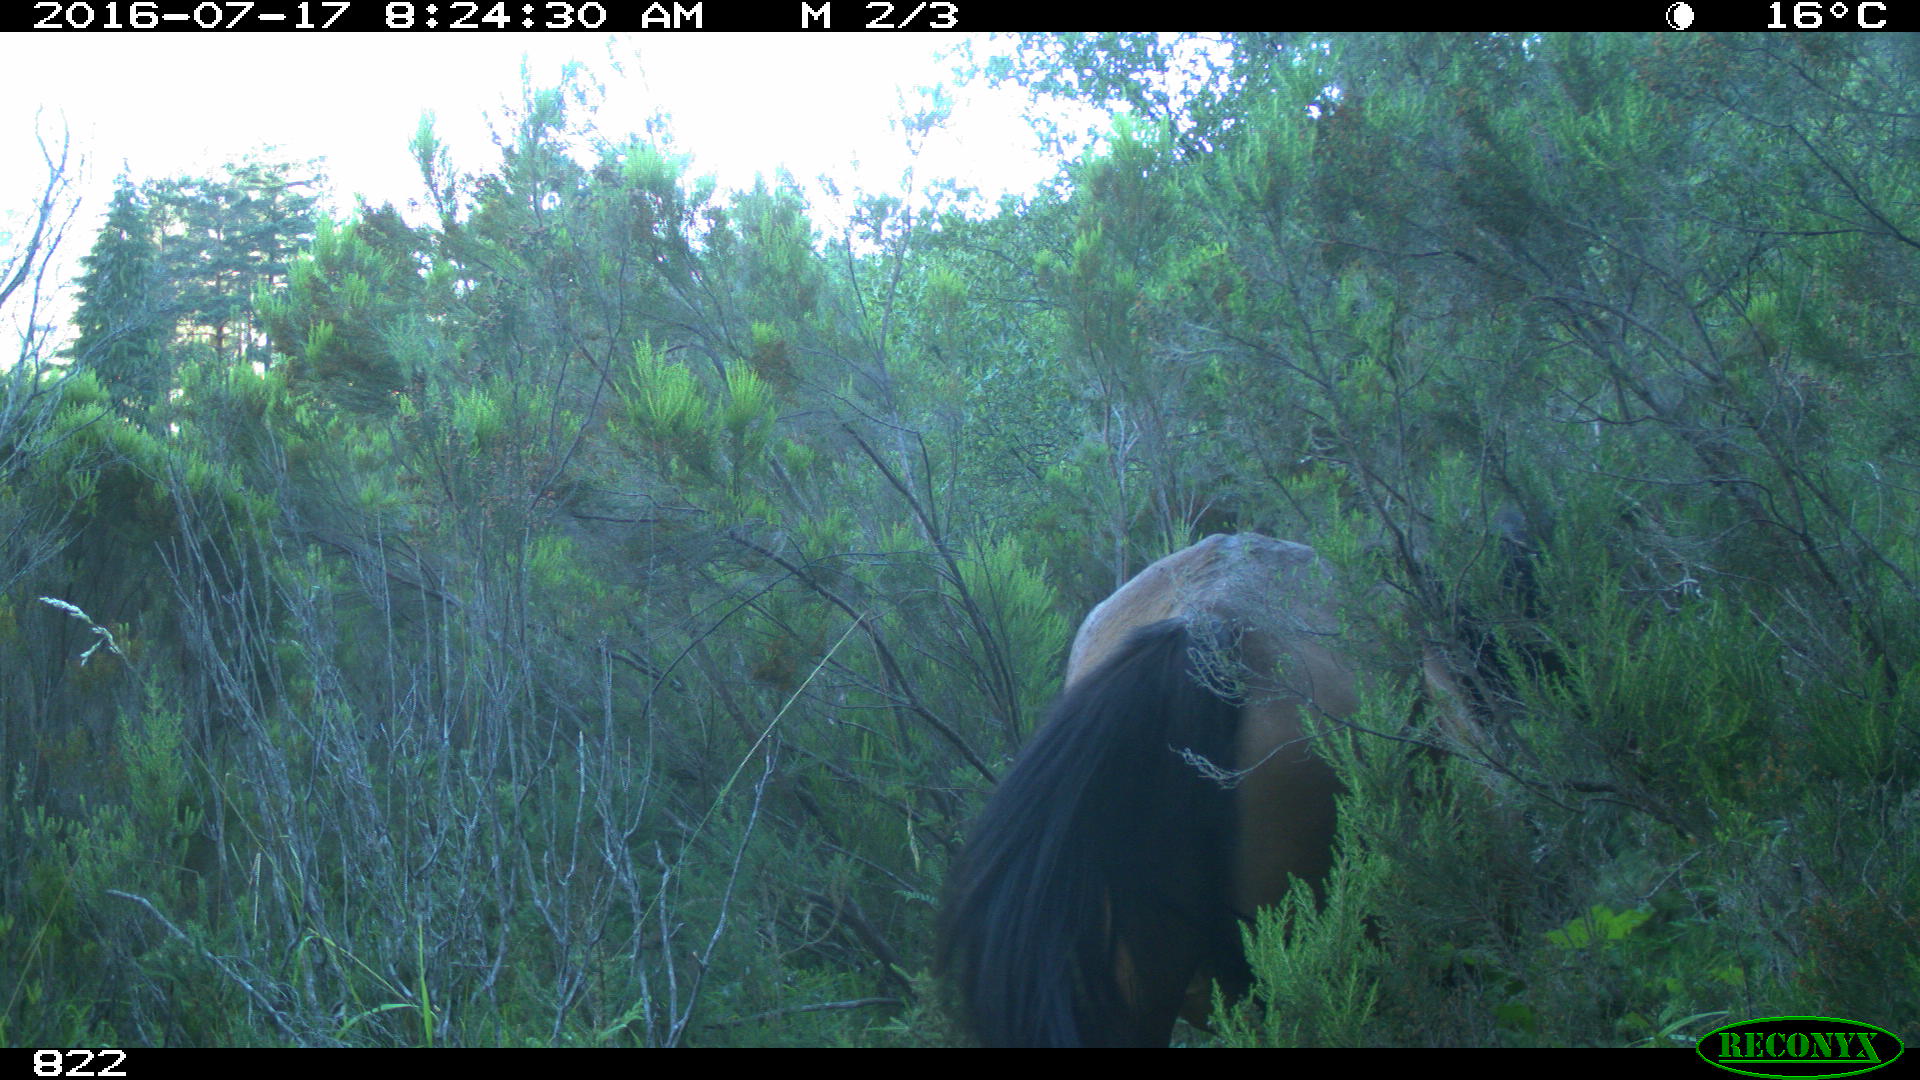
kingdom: Animalia
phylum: Chordata
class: Mammalia
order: Perissodactyla
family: Equidae
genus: Equus
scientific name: Equus caballus
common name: Horse
